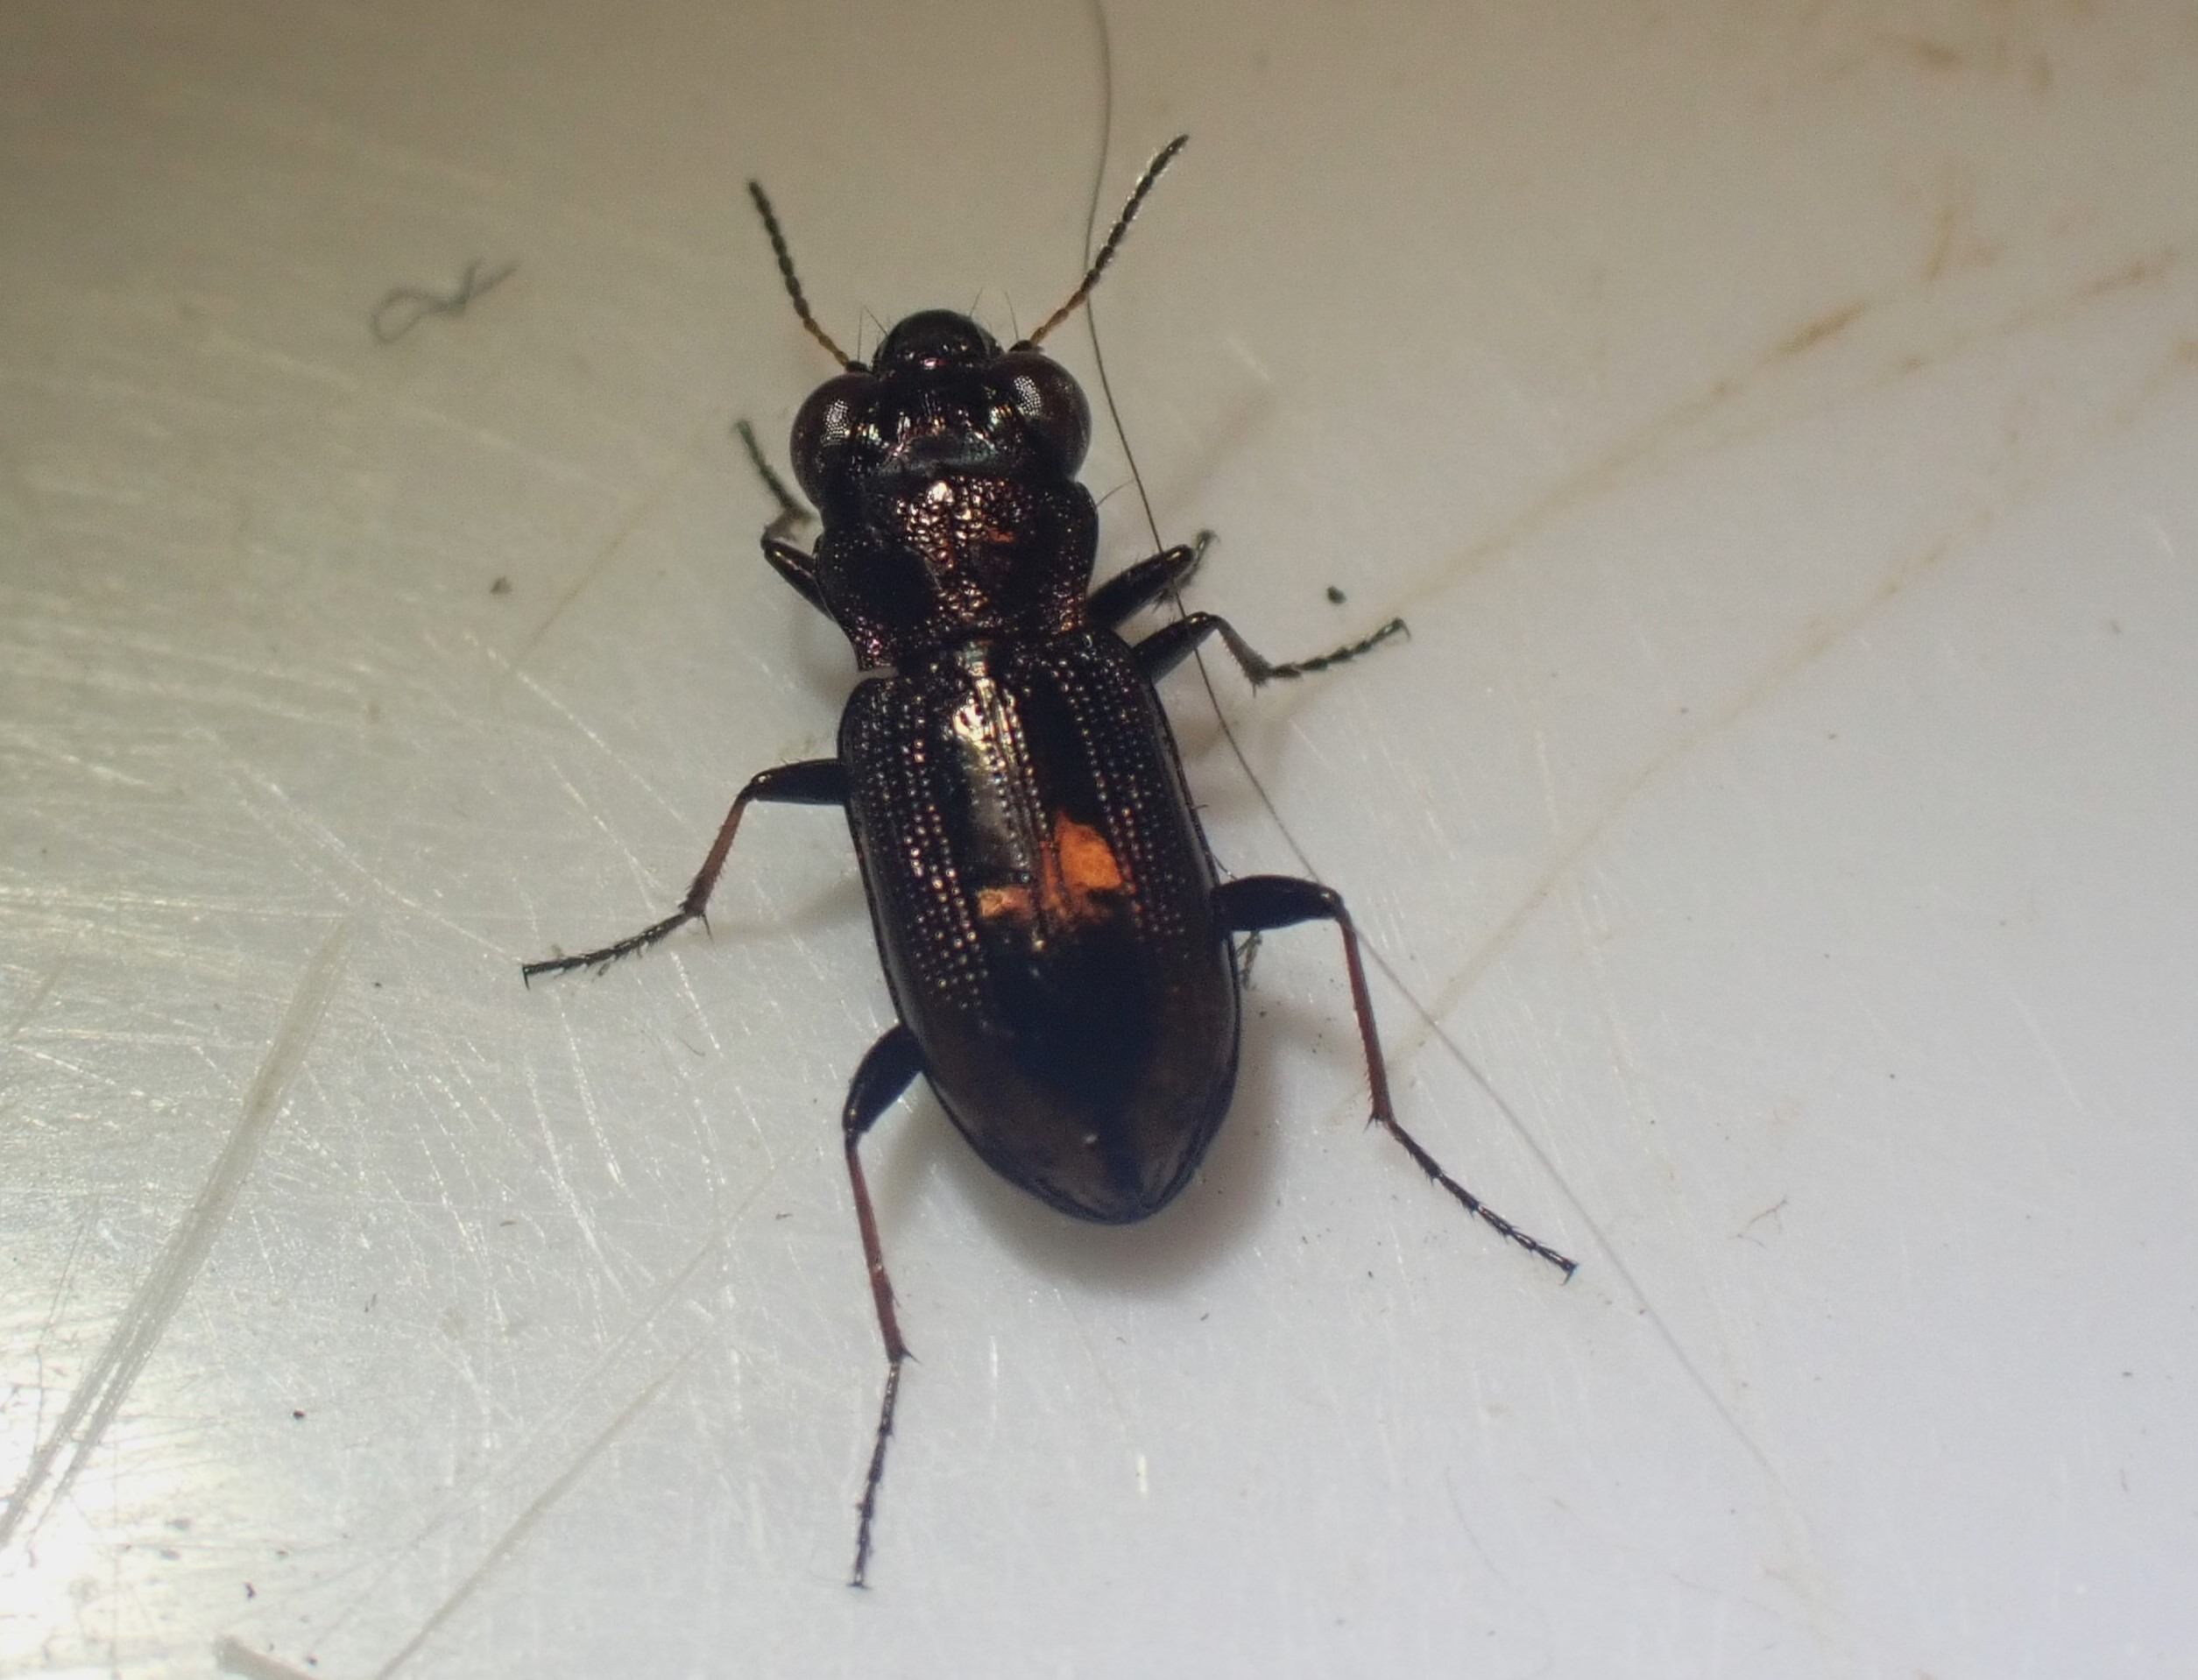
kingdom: Animalia
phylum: Arthropoda
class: Insecta
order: Coleoptera
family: Carabidae
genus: Notiophilus
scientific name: Notiophilus biguttatus
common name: Toplettet spejlløber
